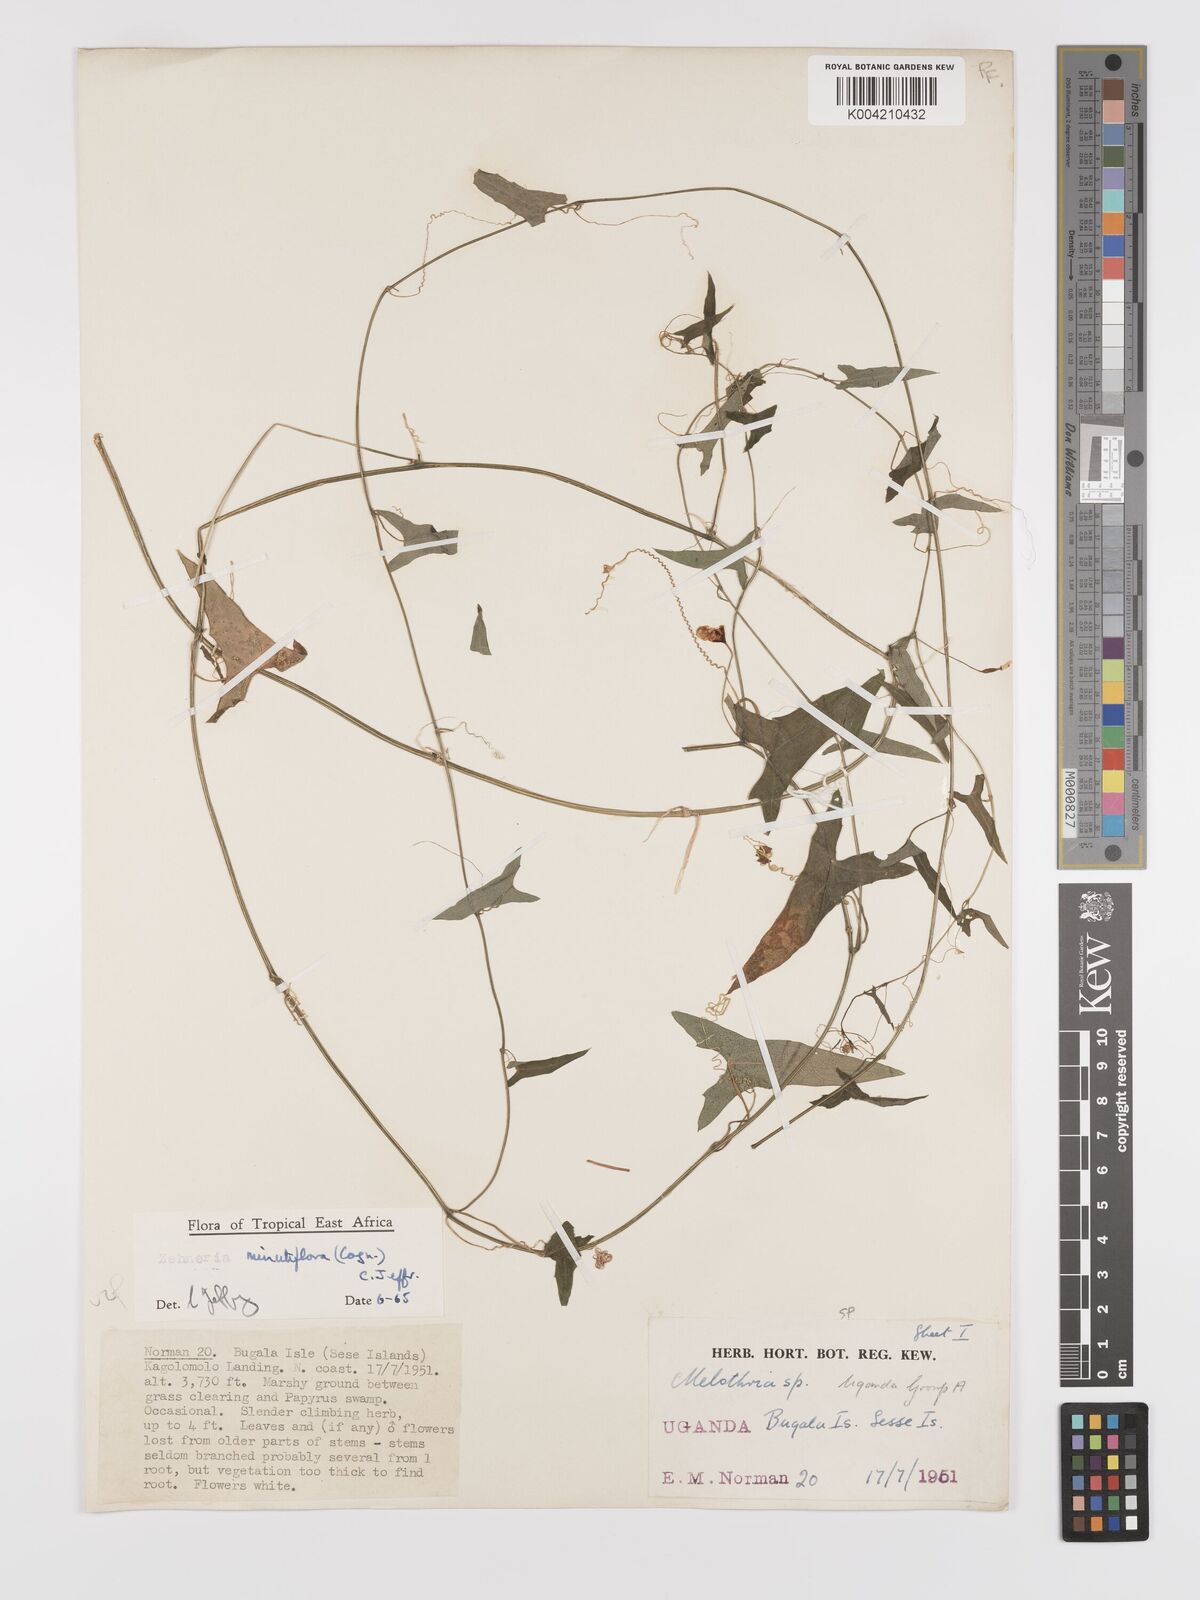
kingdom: Plantae
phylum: Tracheophyta
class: Magnoliopsida
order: Cucurbitales
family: Cucurbitaceae
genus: Zehneria
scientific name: Zehneria minutiflora
